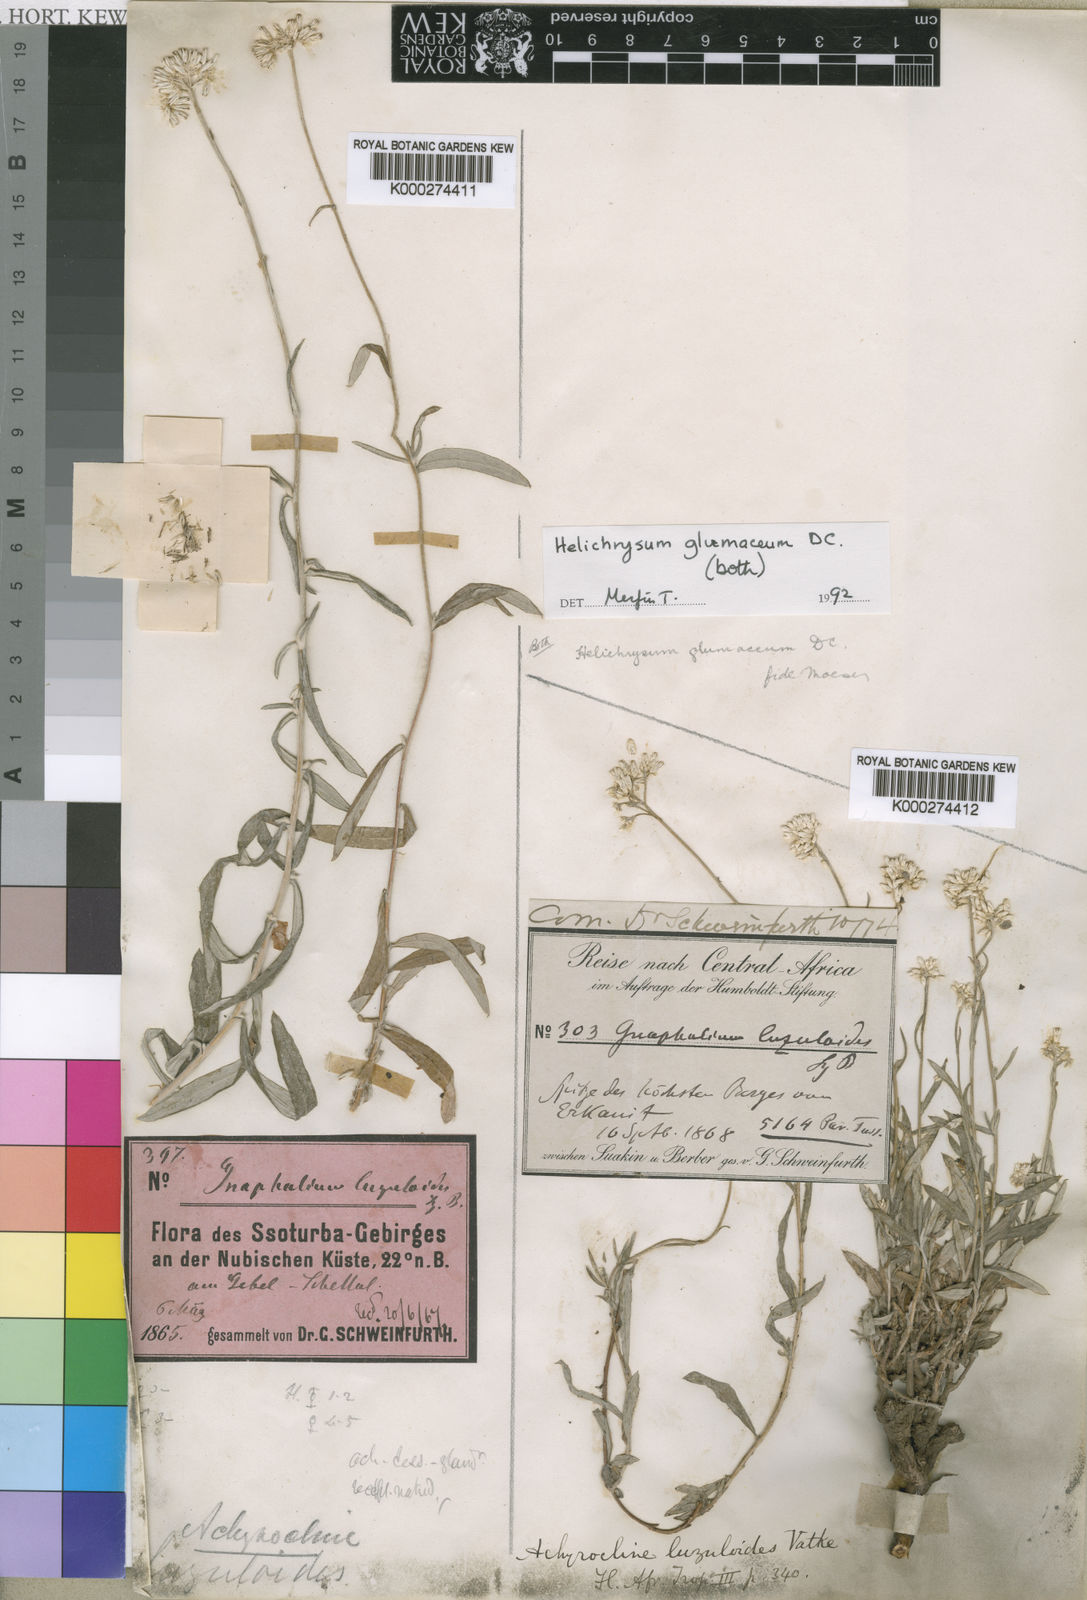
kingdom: Plantae
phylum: Tracheophyta
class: Magnoliopsida
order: Asterales
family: Asteraceae
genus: Helichrysum
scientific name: Helichrysum glumaceum
